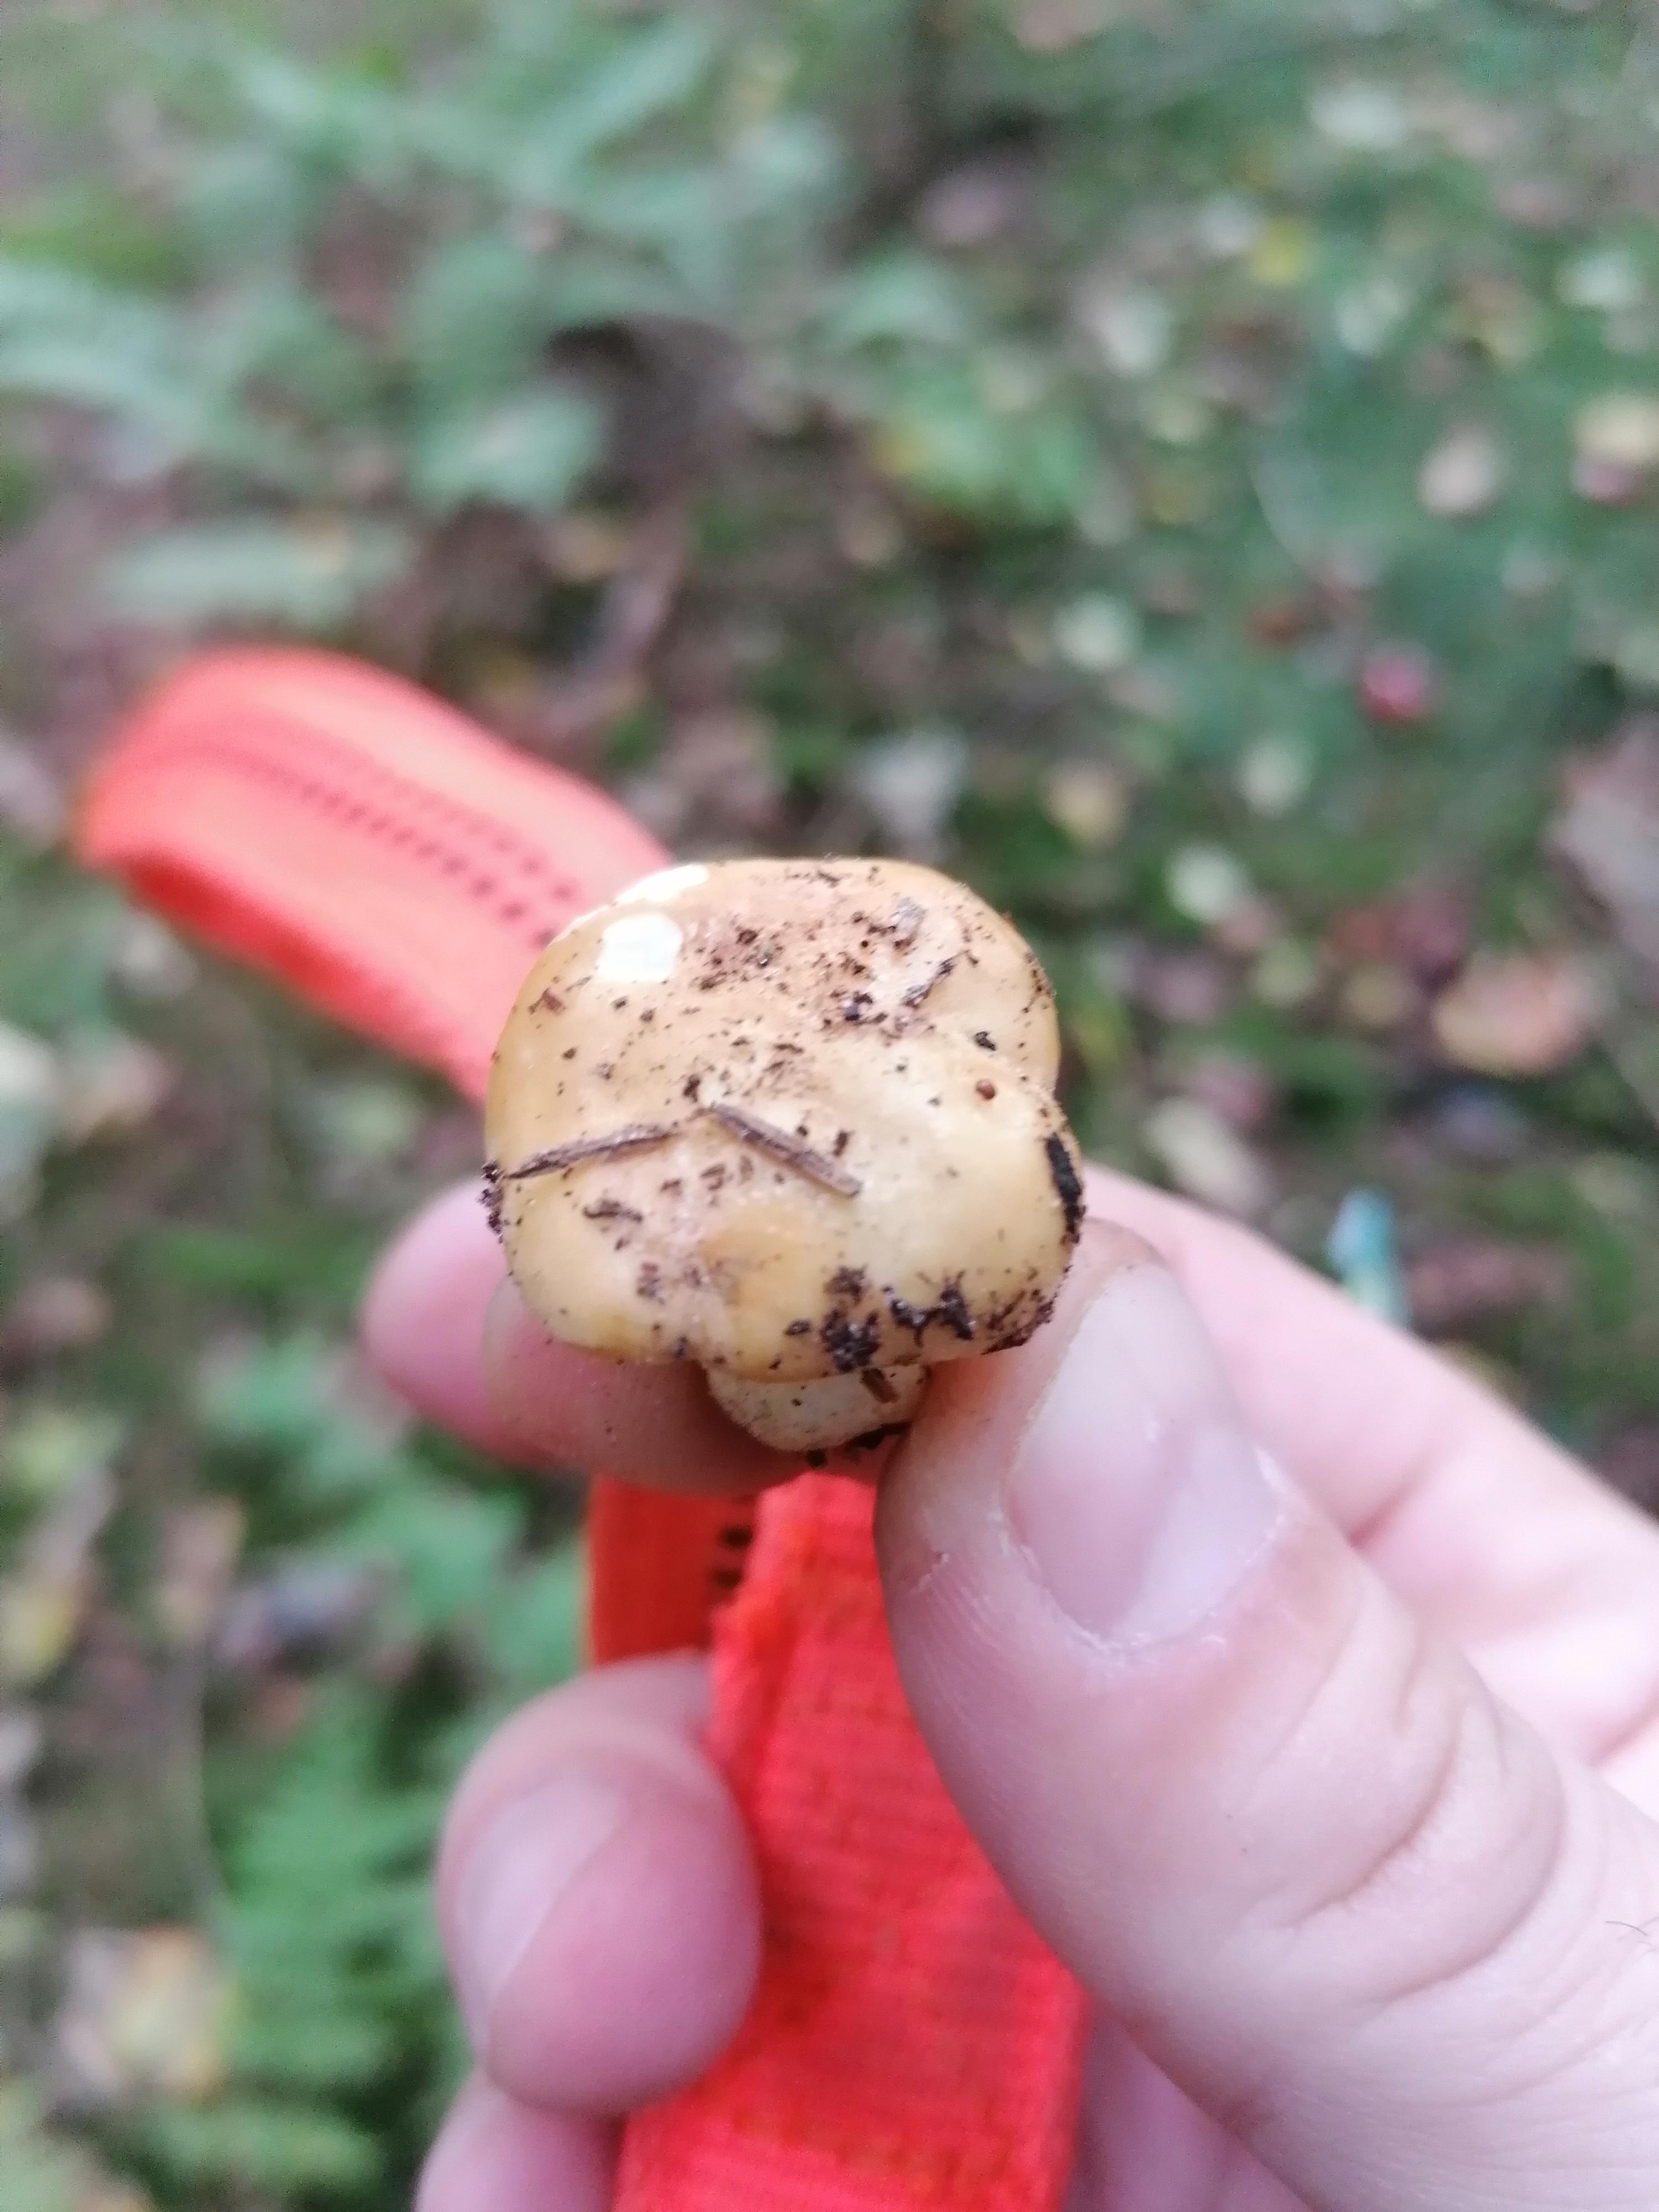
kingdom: Fungi
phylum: Basidiomycota
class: Agaricomycetes
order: Russulales
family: Russulaceae
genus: Russula
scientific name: Russula ochroleuca
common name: okkergul skørhat
